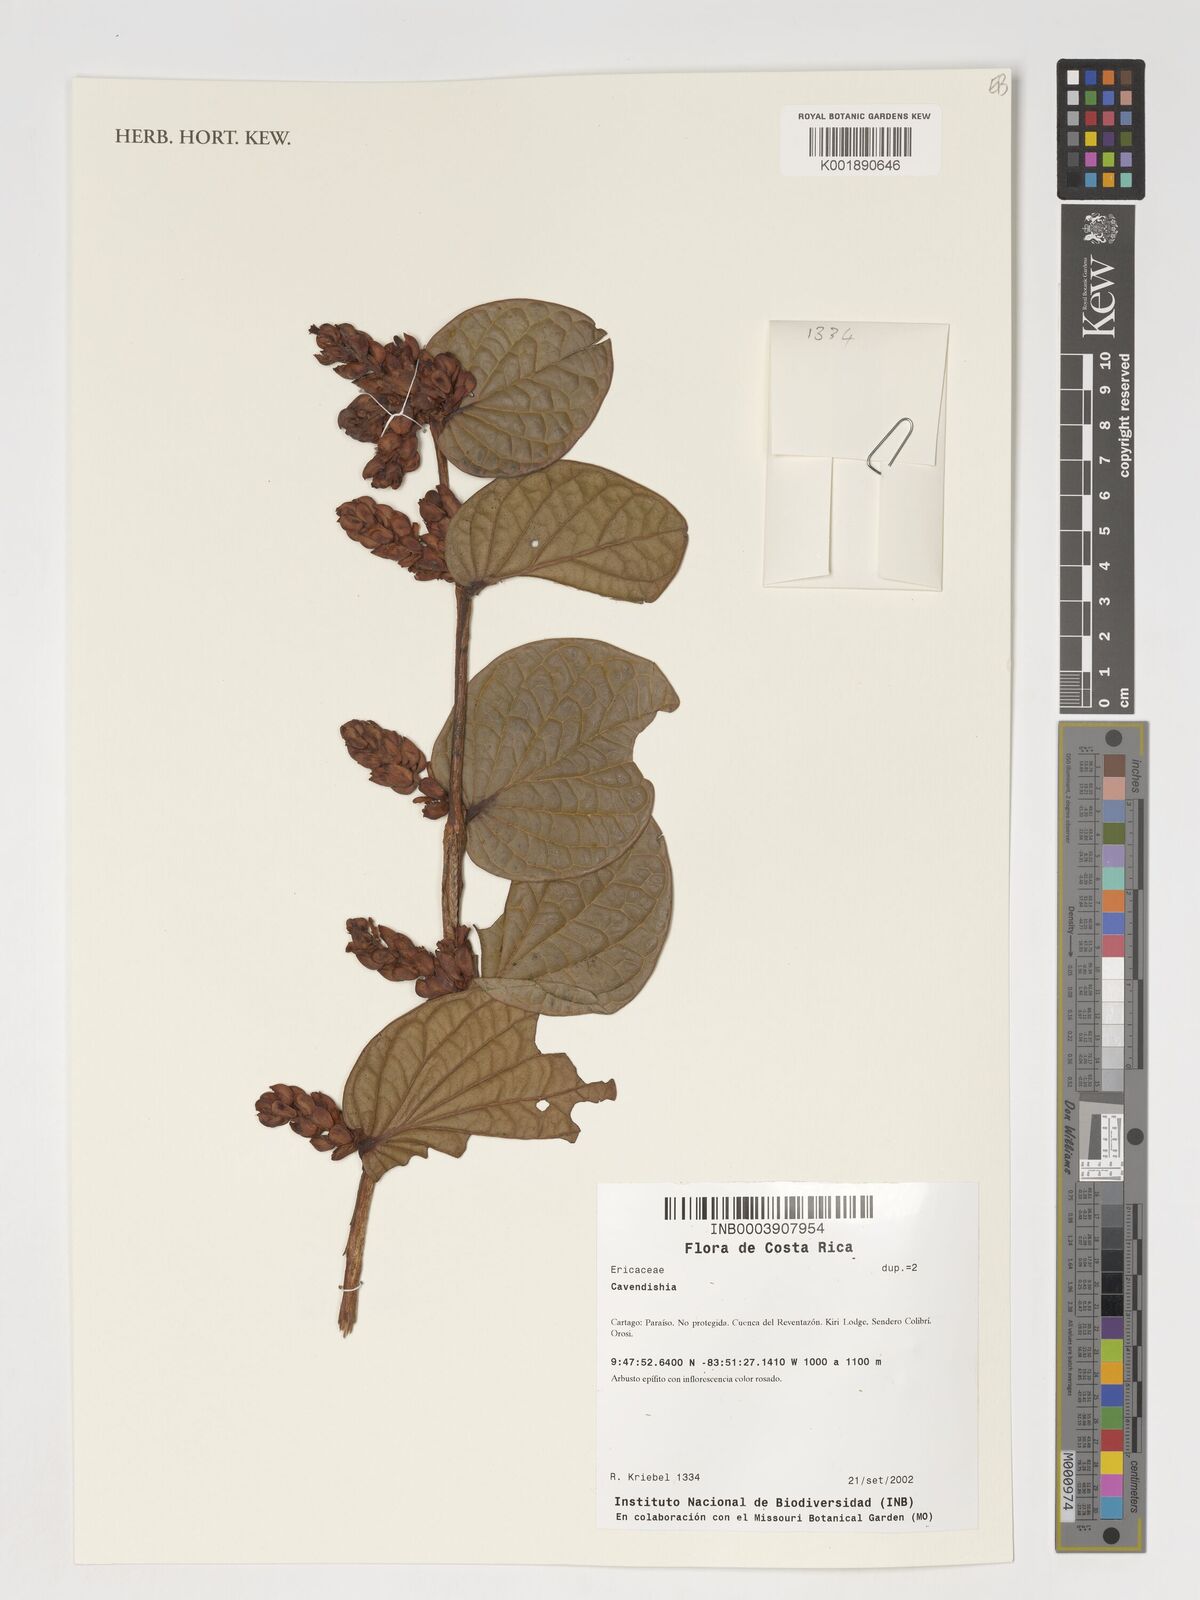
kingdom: Plantae
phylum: Tracheophyta
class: Magnoliopsida
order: Ericales
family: Ericaceae
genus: Cavendishia
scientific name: Cavendishia
